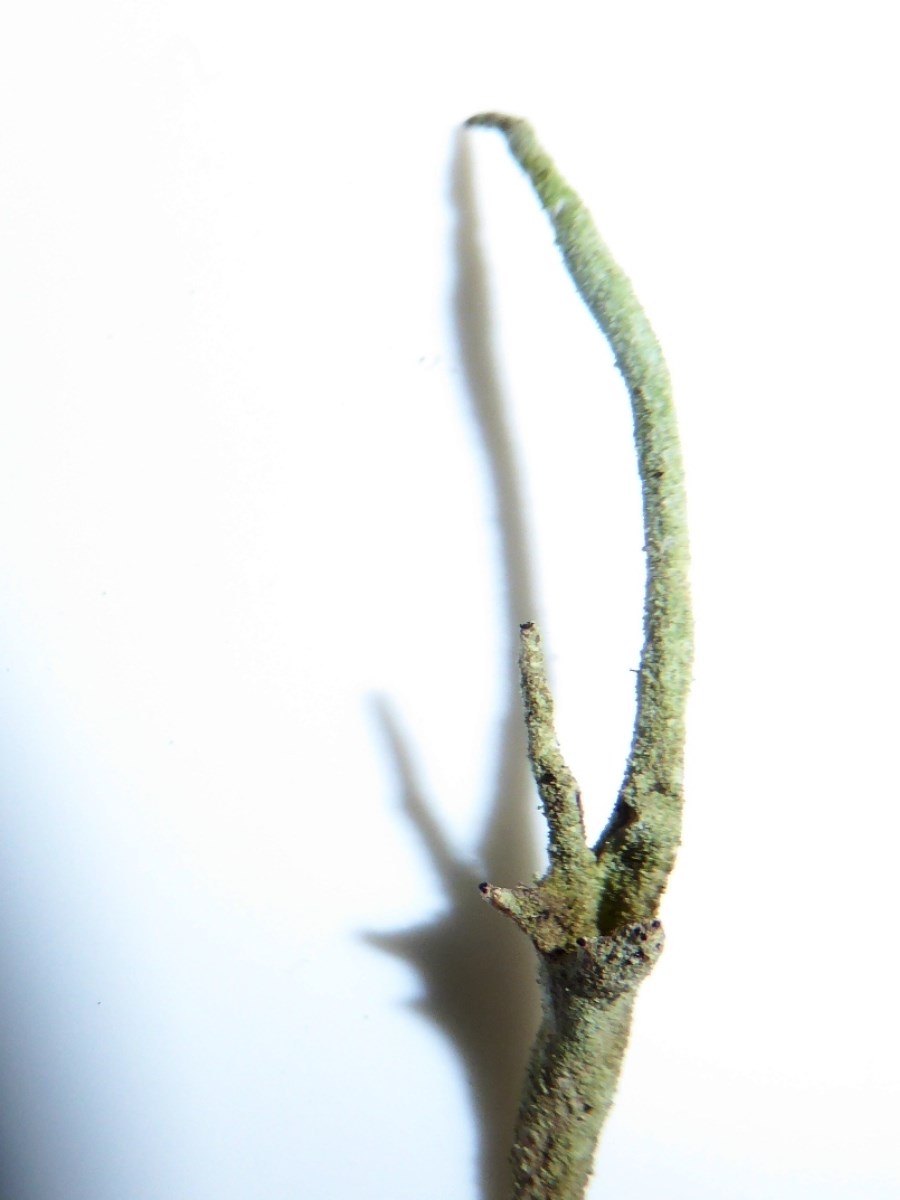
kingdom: Fungi
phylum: Ascomycota
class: Lecanoromycetes
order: Lecanorales
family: Cladoniaceae
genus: Cladonia
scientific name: Cladonia subulata
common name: spids bægerlav
